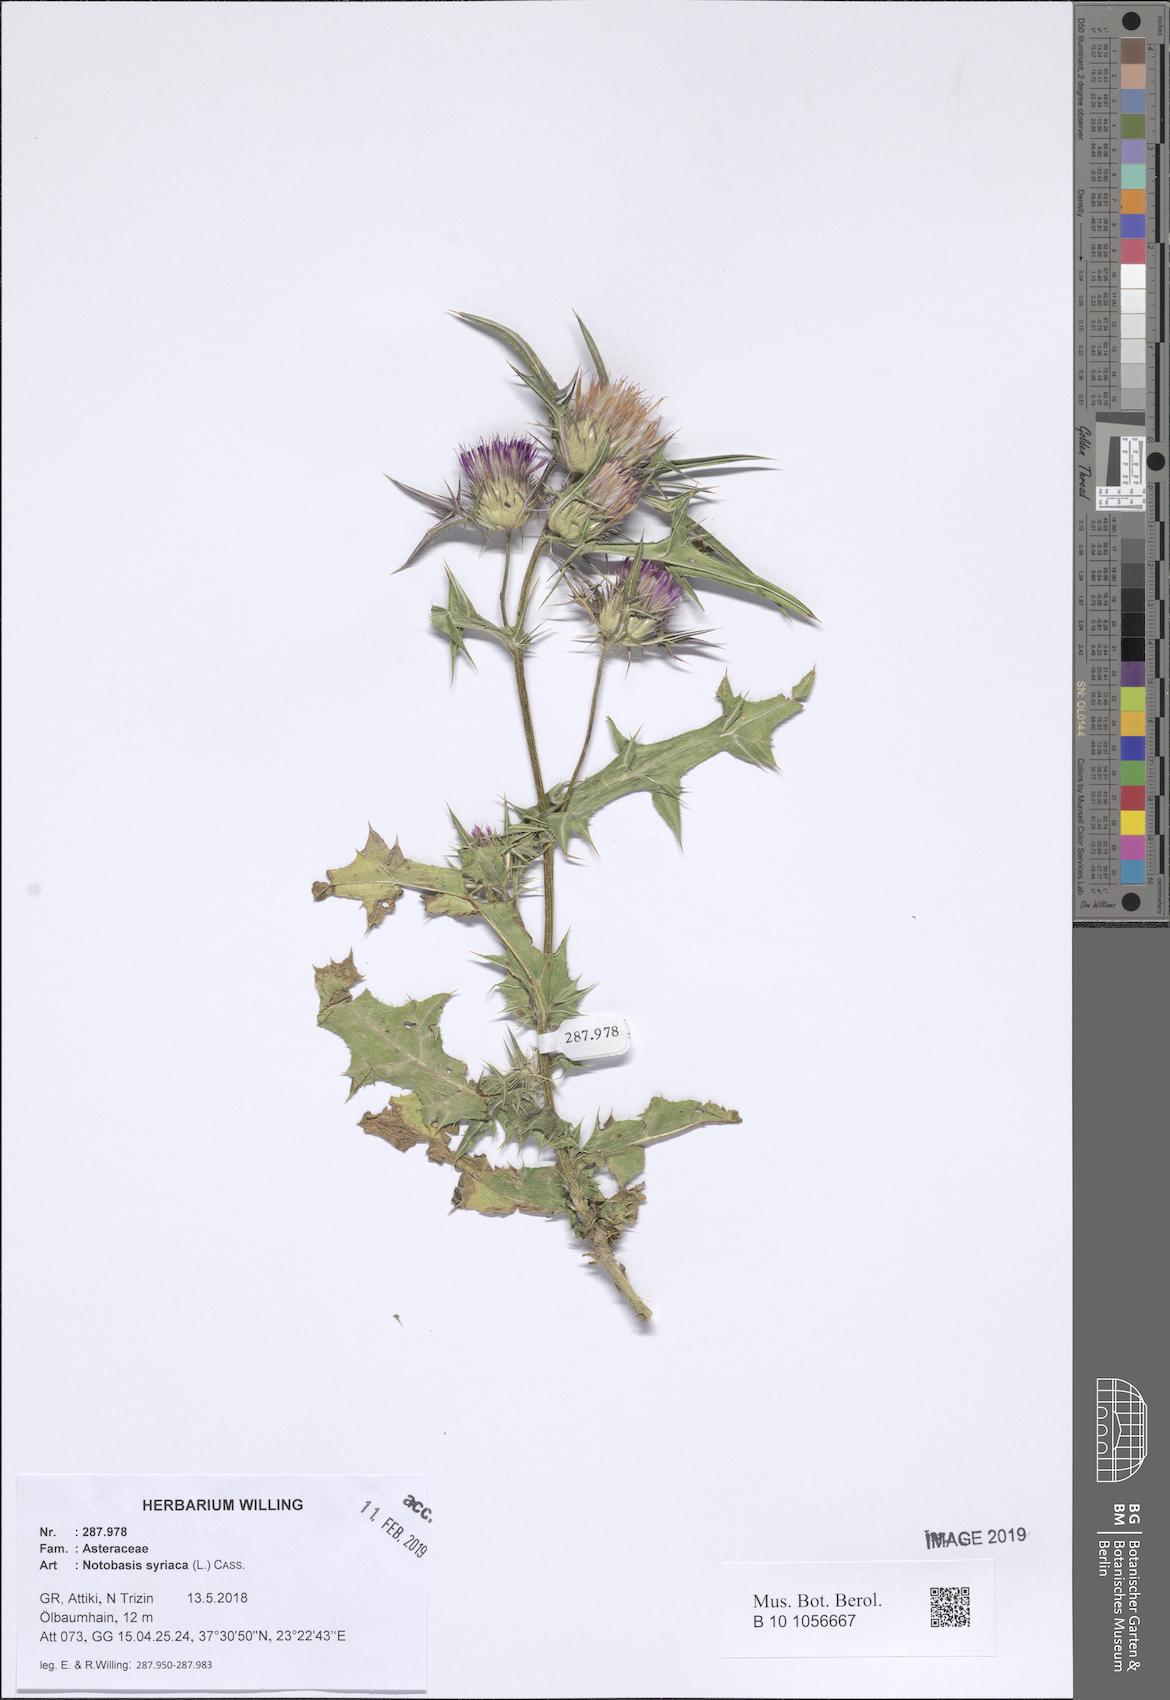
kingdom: Plantae
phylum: Tracheophyta
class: Magnoliopsida
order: Asterales
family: Asteraceae
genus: Notobasis
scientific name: Notobasis syriaca
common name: Syrian thistle
